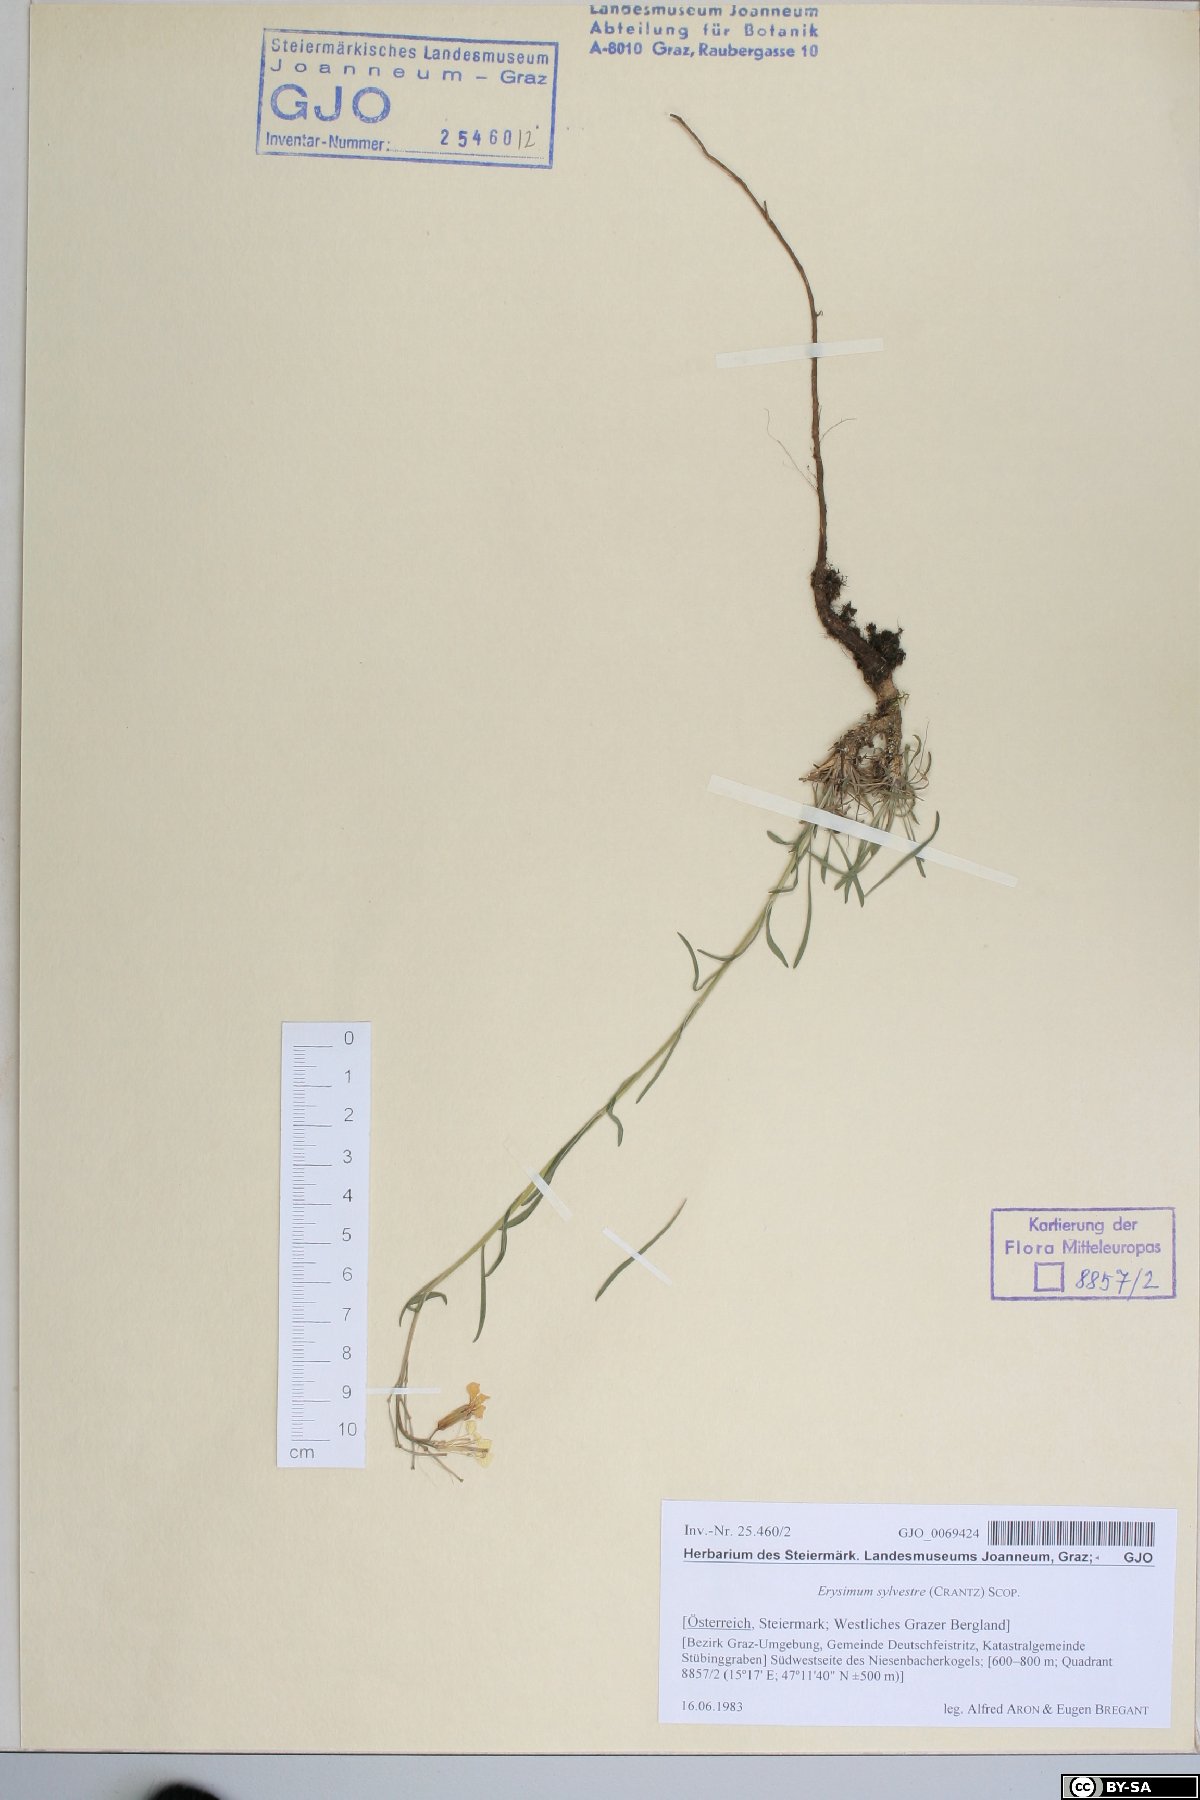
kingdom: Plantae
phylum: Tracheophyta
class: Magnoliopsida
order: Brassicales
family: Brassicaceae
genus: Erysimum
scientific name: Erysimum sylvestre
